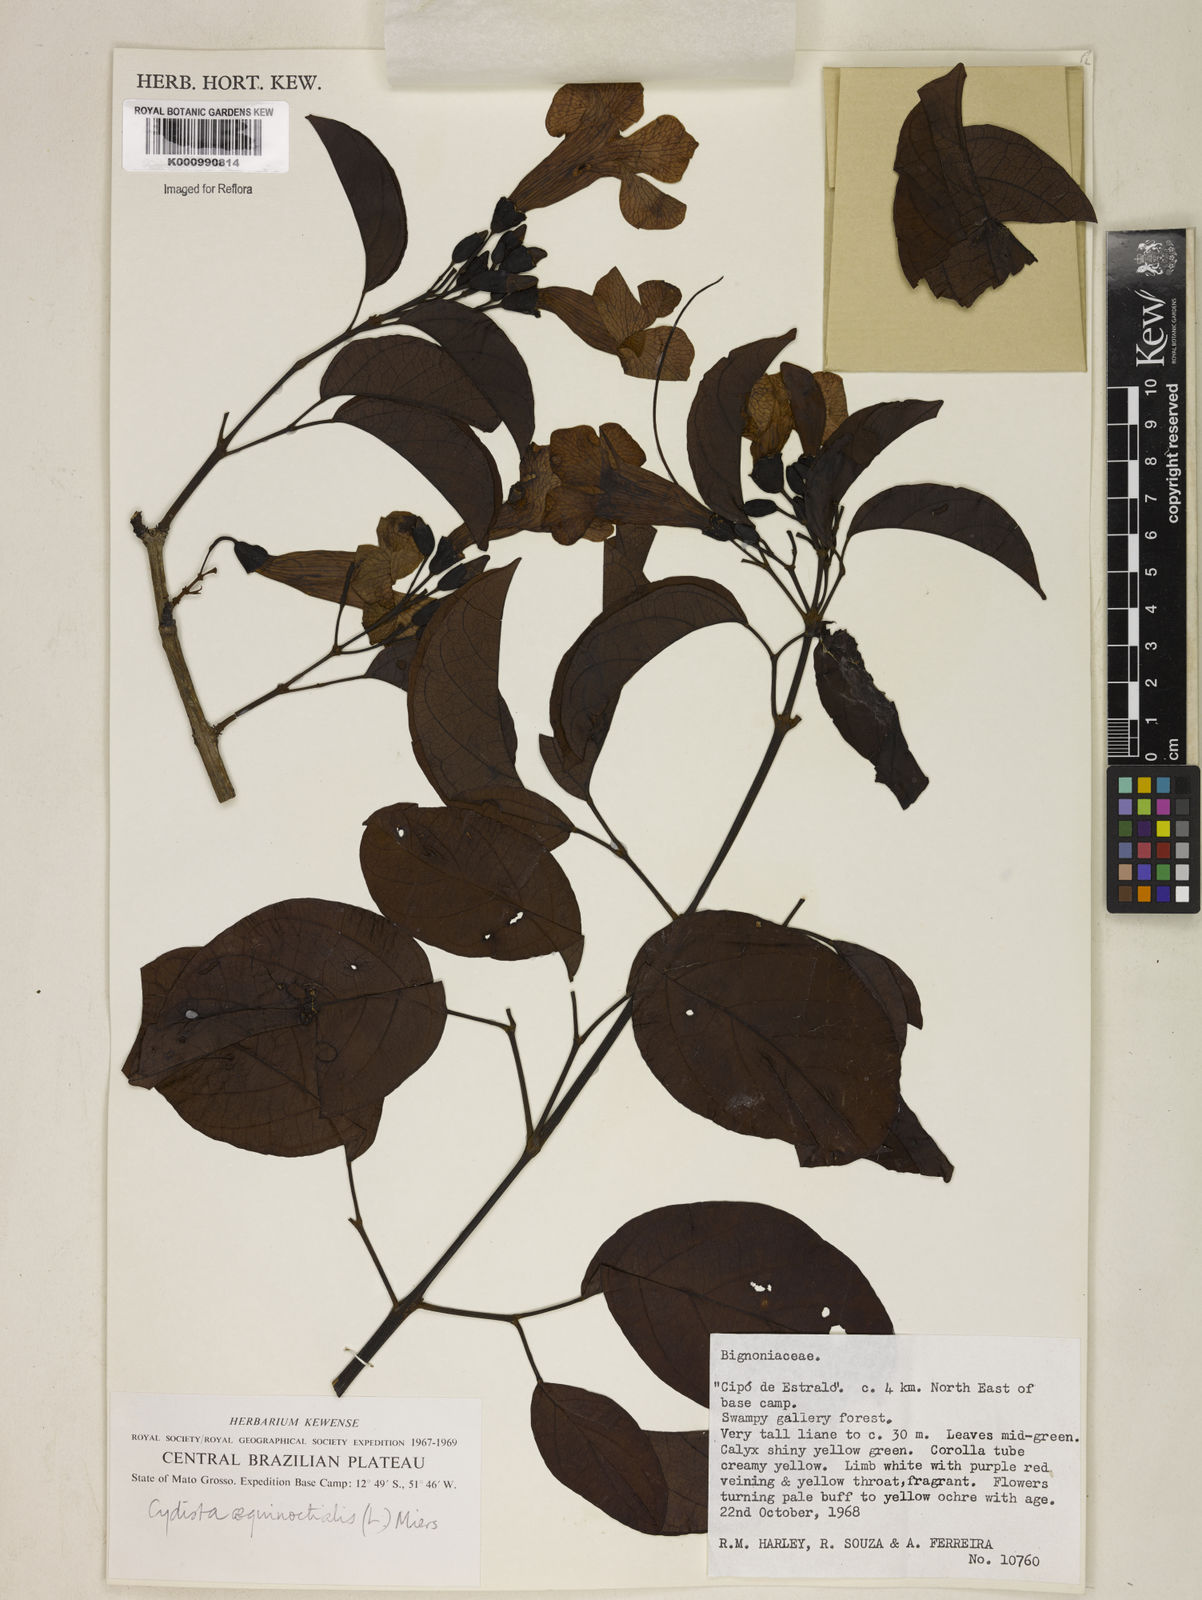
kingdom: Plantae
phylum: Tracheophyta
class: Magnoliopsida
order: Lamiales
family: Bignoniaceae
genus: Bignonia
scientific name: Bignonia aequinoctialis
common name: Garlicvine
